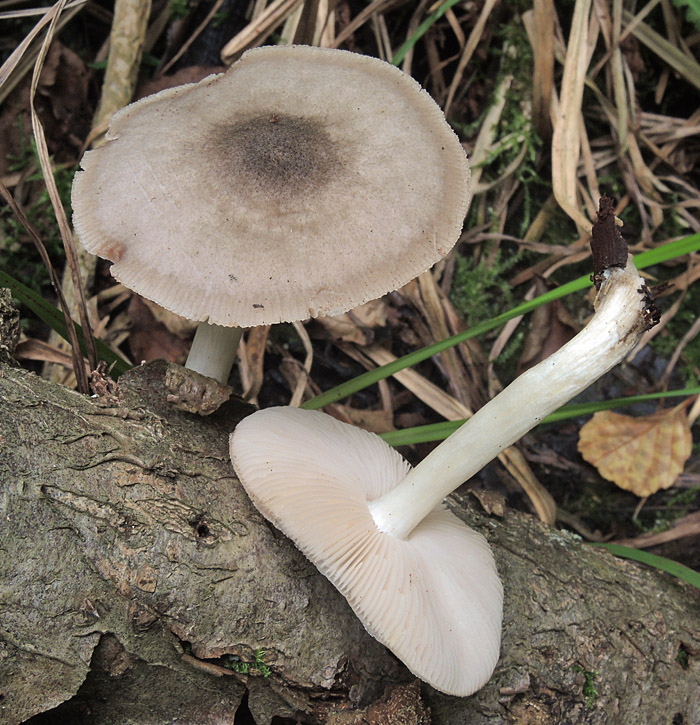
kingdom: Fungi
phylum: Basidiomycota
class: Agaricomycetes
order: Agaricales
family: Pluteaceae
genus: Pluteus
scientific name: Pluteus salicinus
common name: stiv skærmhat
